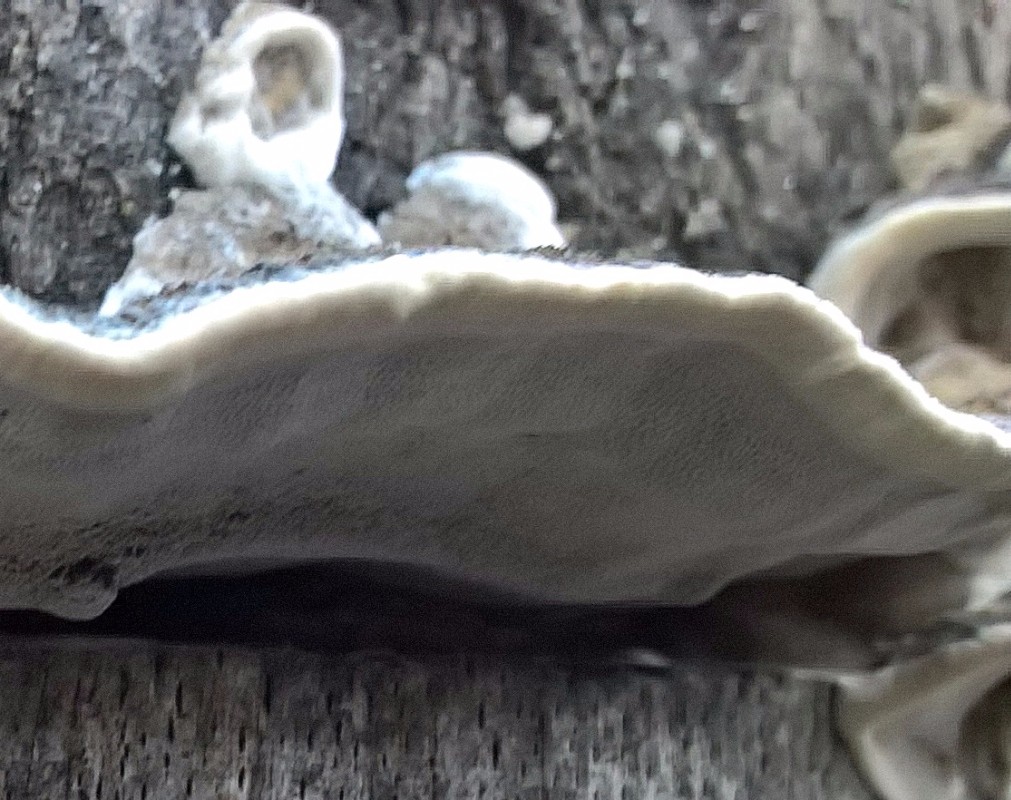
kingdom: Fungi
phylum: Basidiomycota
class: Agaricomycetes
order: Polyporales
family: Phanerochaetaceae
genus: Bjerkandera
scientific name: Bjerkandera adusta
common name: sveden sodporesvamp
